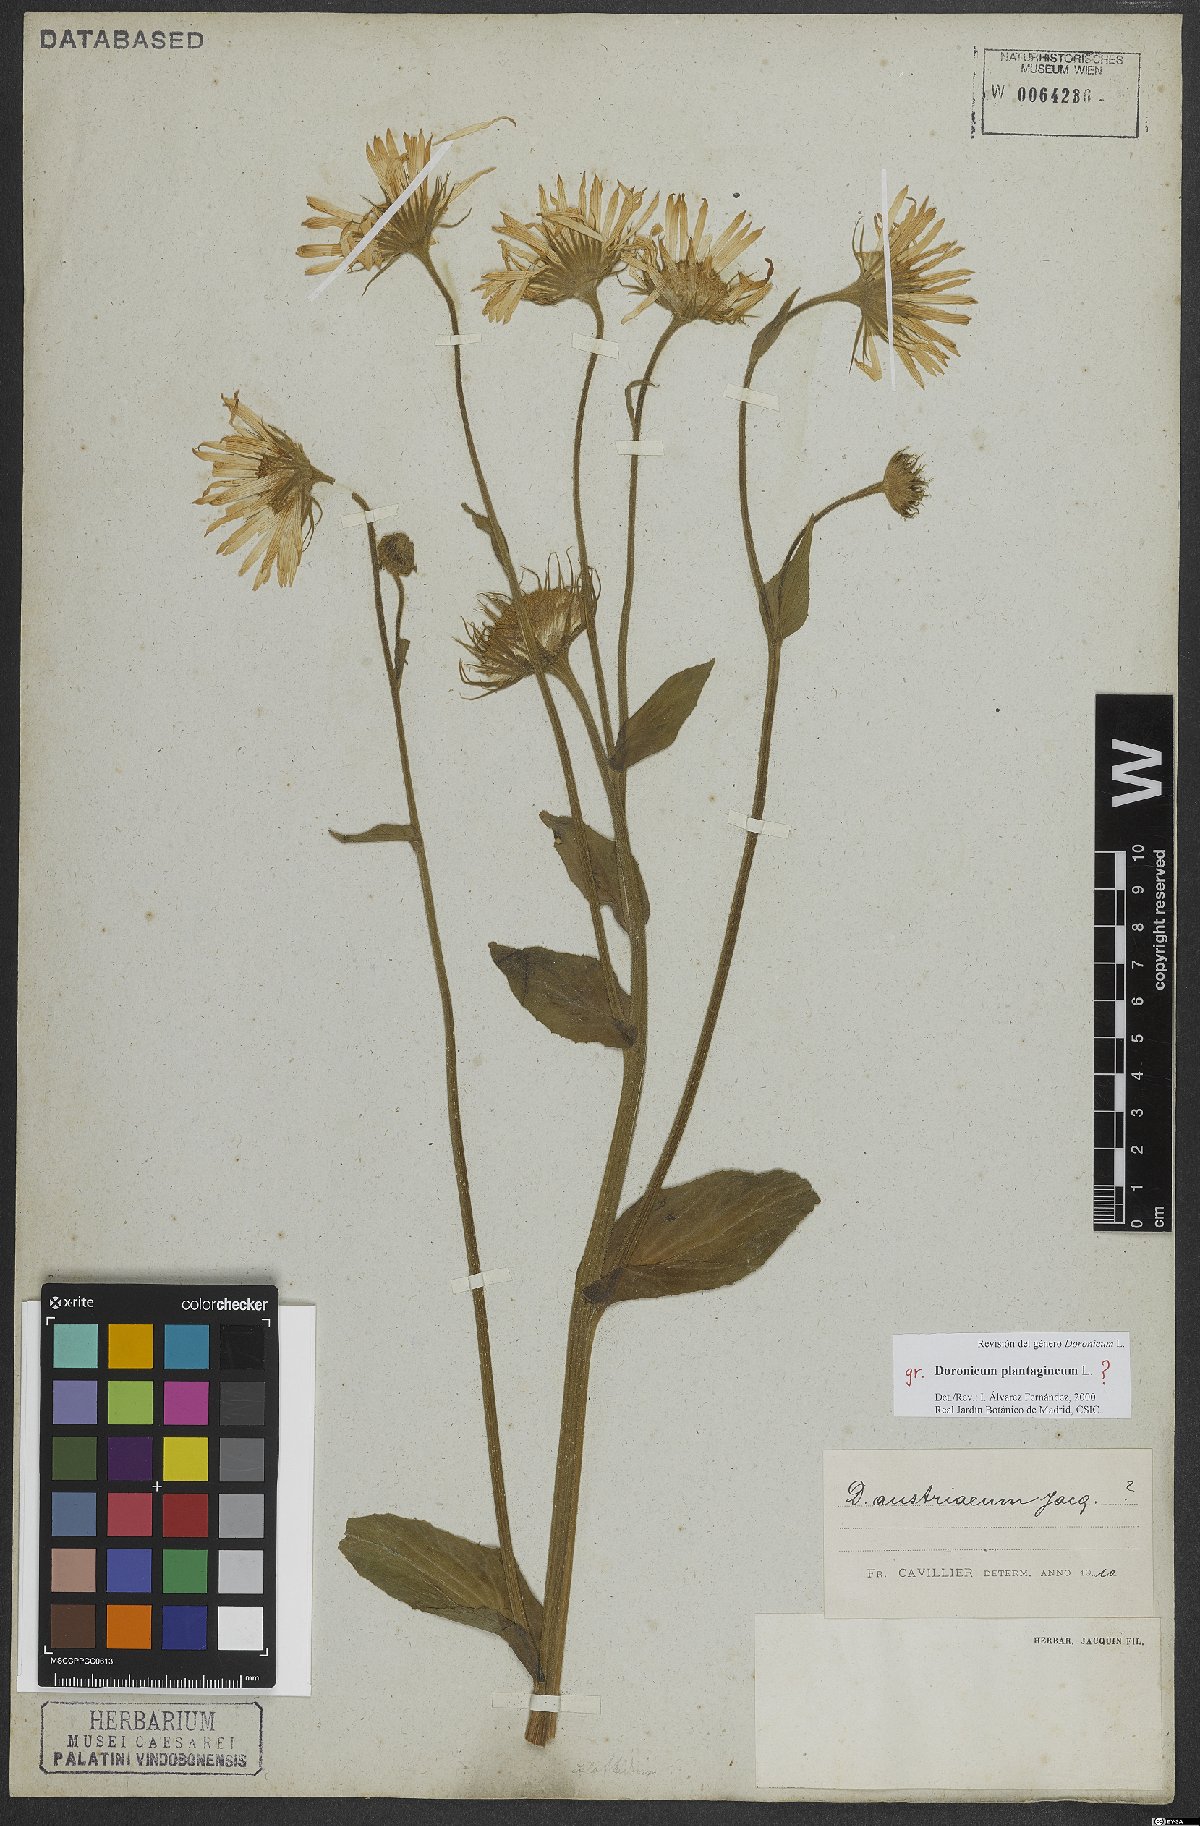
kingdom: Plantae
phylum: Tracheophyta
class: Magnoliopsida
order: Asterales
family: Asteraceae
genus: Doronicum
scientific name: Doronicum plantagineum
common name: Plantain-leaved leopard's-bane
